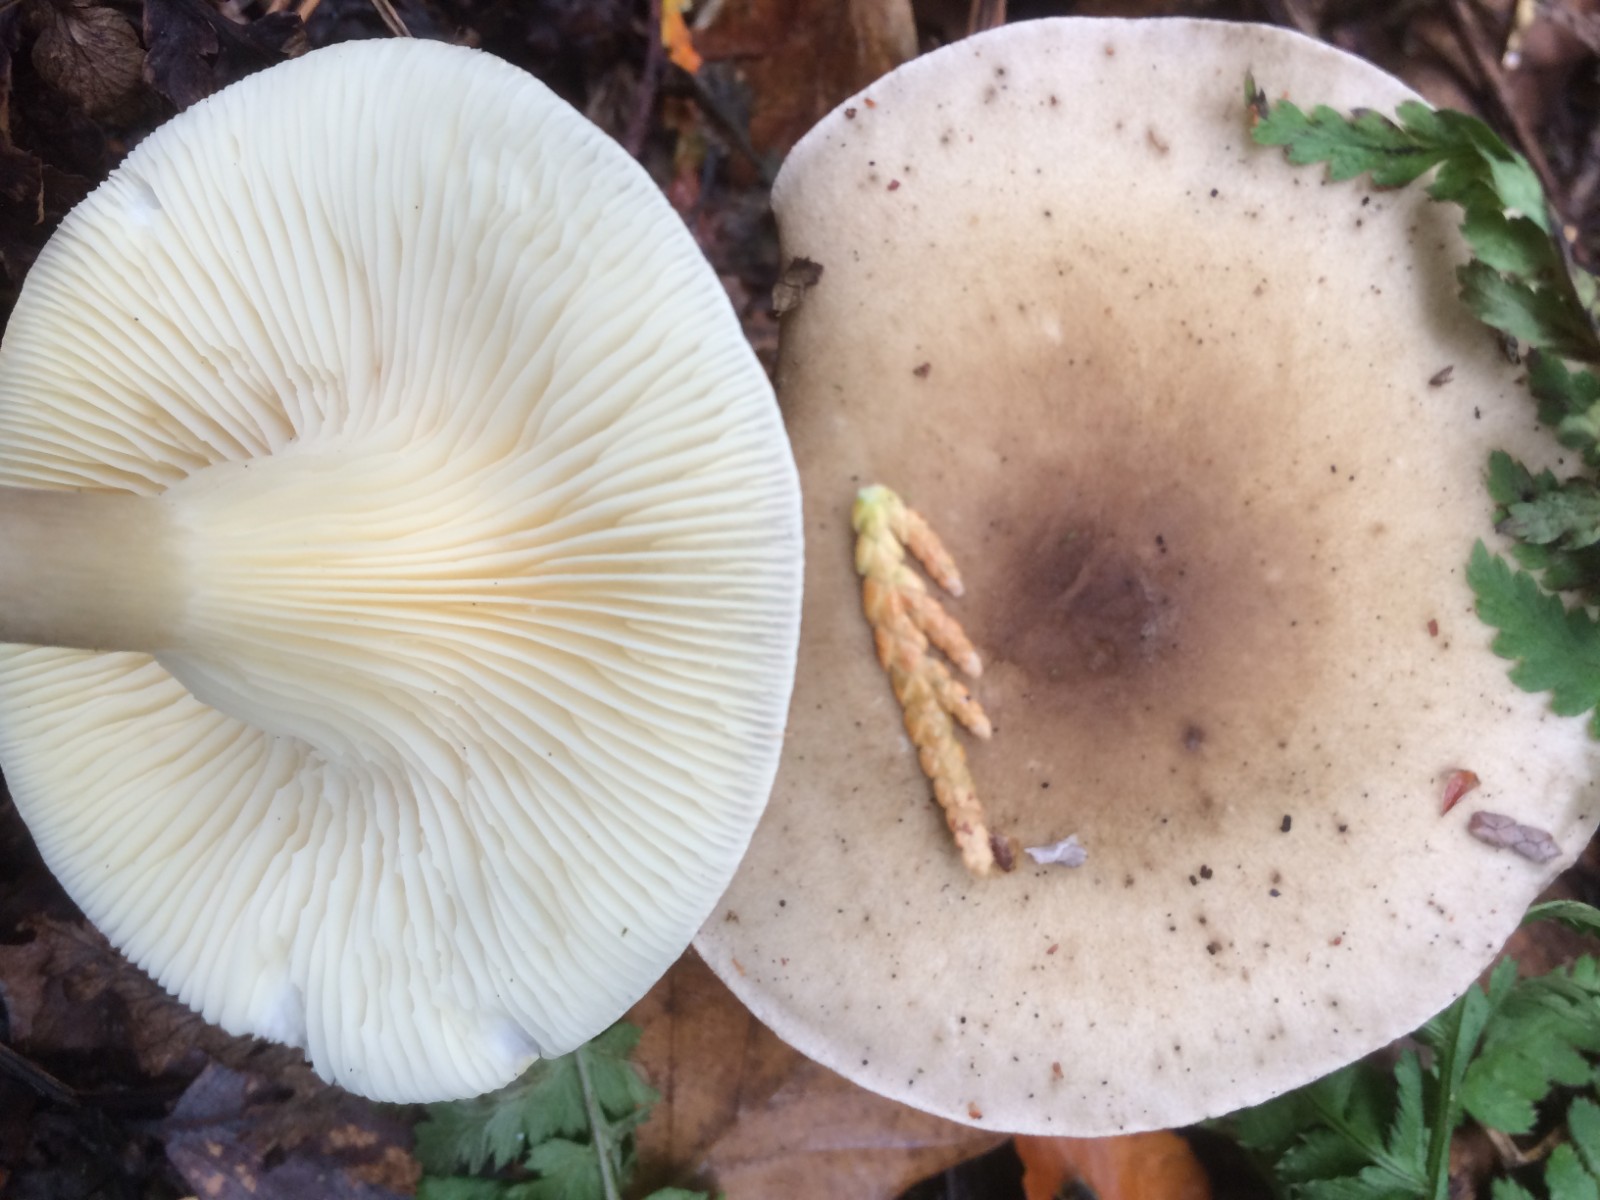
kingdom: Fungi
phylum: Basidiomycota
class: Agaricomycetes
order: Agaricales
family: Hygrophoraceae
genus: Ampulloclitocybe
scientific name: Ampulloclitocybe clavipes
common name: køllefod
